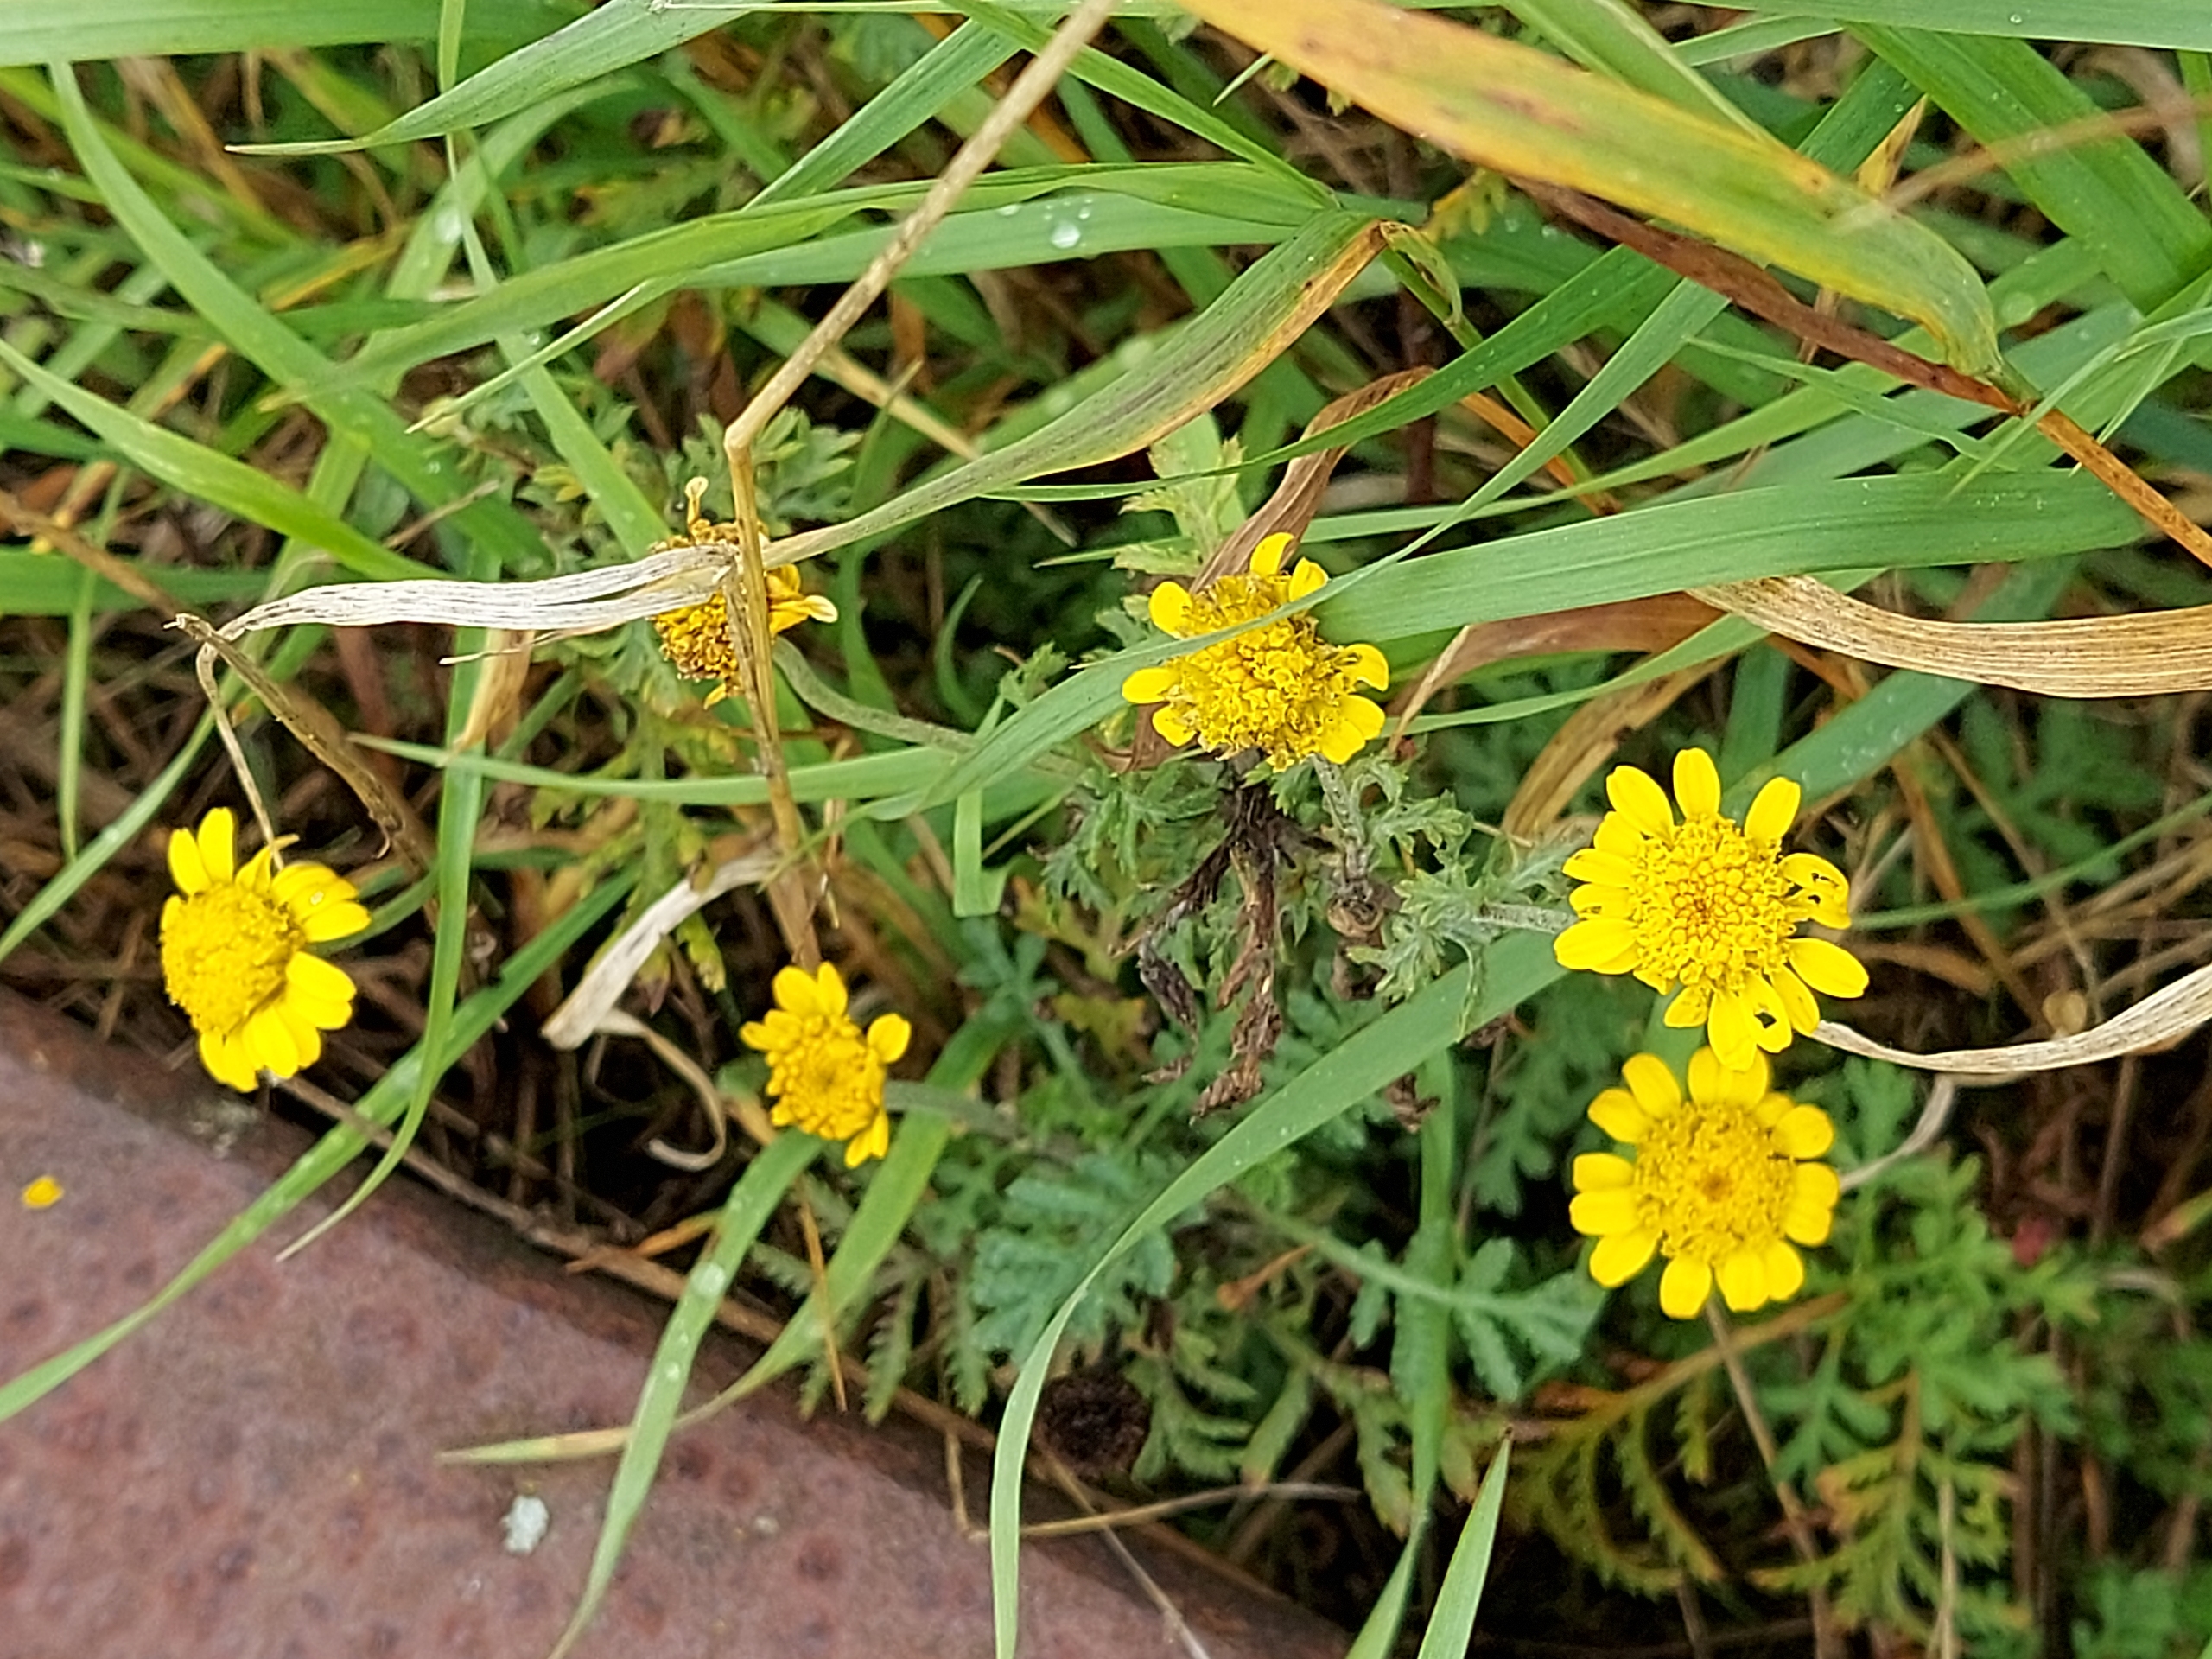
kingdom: Plantae
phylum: Tracheophyta
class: Magnoliopsida
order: Asterales
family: Asteraceae
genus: Cota
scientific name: Cota tinctoria
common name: Farve-gåseurt
